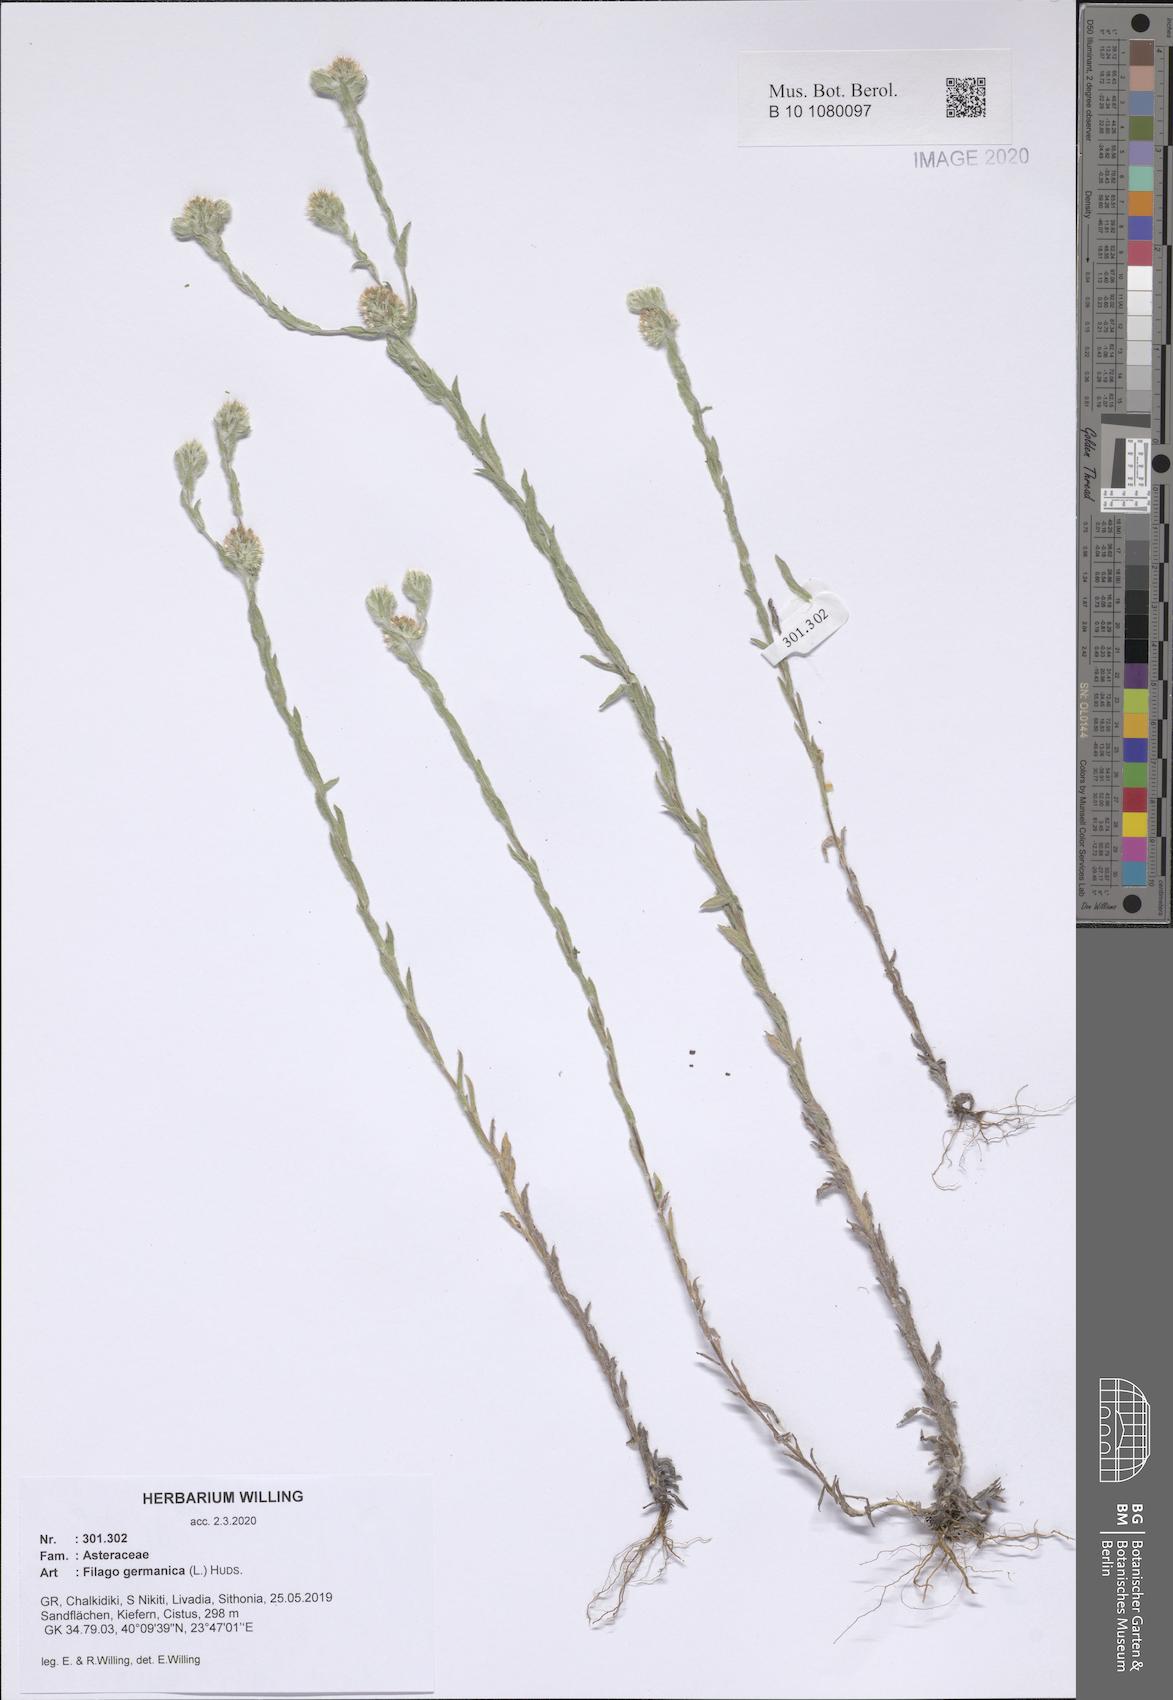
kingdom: Plantae
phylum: Tracheophyta
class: Magnoliopsida
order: Asterales
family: Asteraceae
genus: Filago
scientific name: Filago germanica
